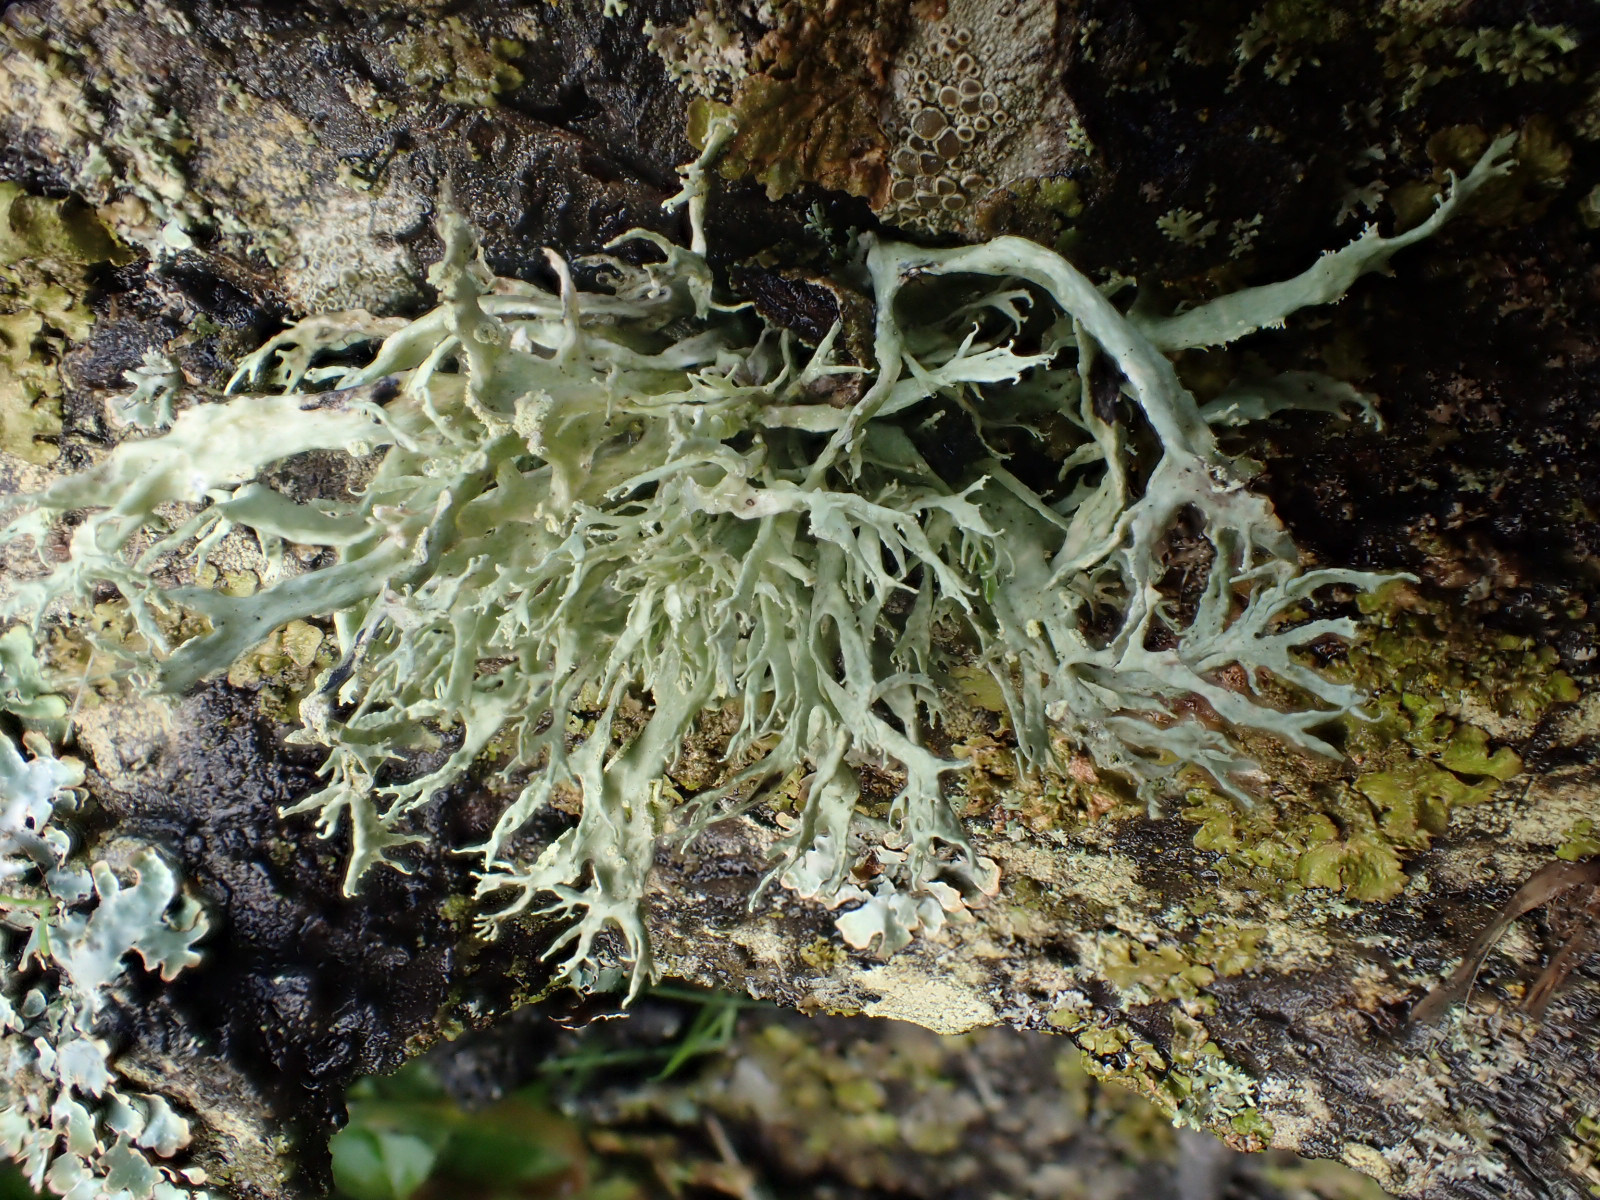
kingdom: Fungi
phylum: Ascomycota
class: Lecanoromycetes
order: Lecanorales
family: Ramalinaceae
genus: Ramalina
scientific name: Ramalina farinacea
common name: melet grenlav
